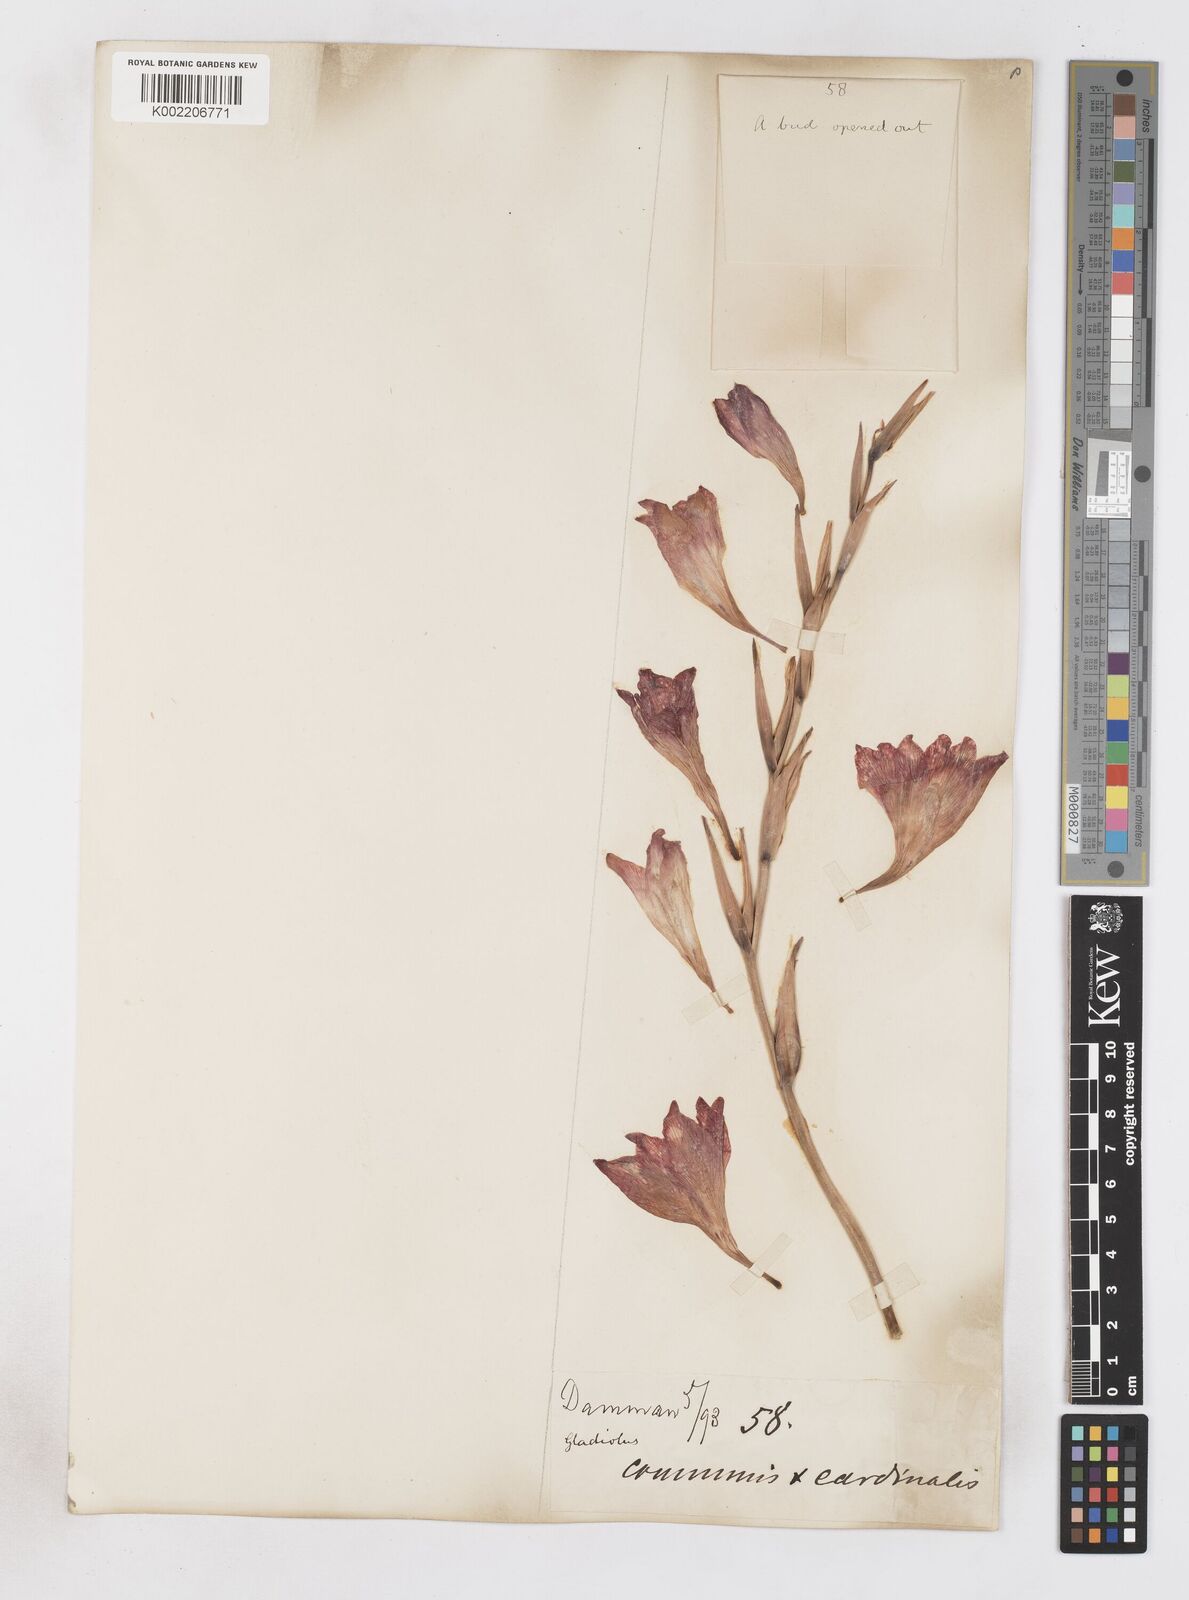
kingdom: Plantae
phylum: Tracheophyta
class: Liliopsida
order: Asparagales
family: Iridaceae
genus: Gladiolus
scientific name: Gladiolus communis
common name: Eastern gladiolus
